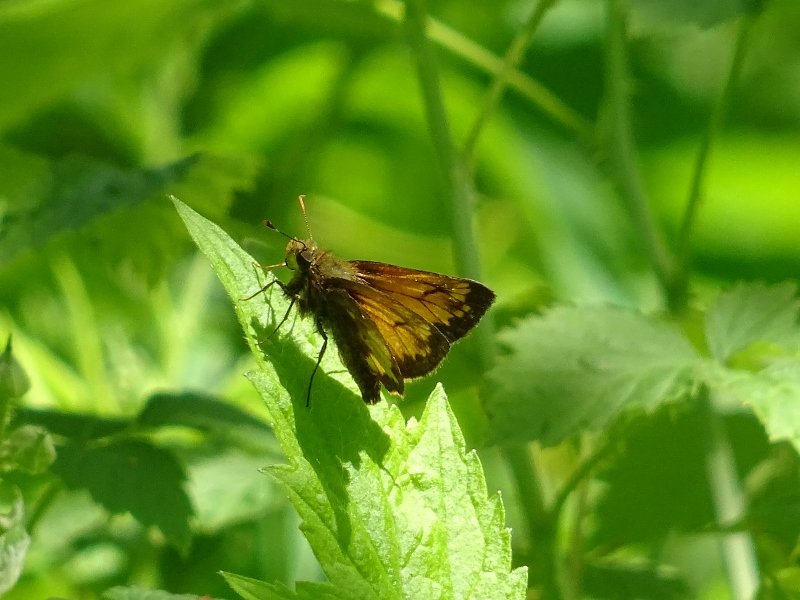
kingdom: Animalia
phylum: Arthropoda
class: Insecta
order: Lepidoptera
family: Hesperiidae
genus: Lon
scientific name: Lon hobomok
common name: Hobomok Skipper
